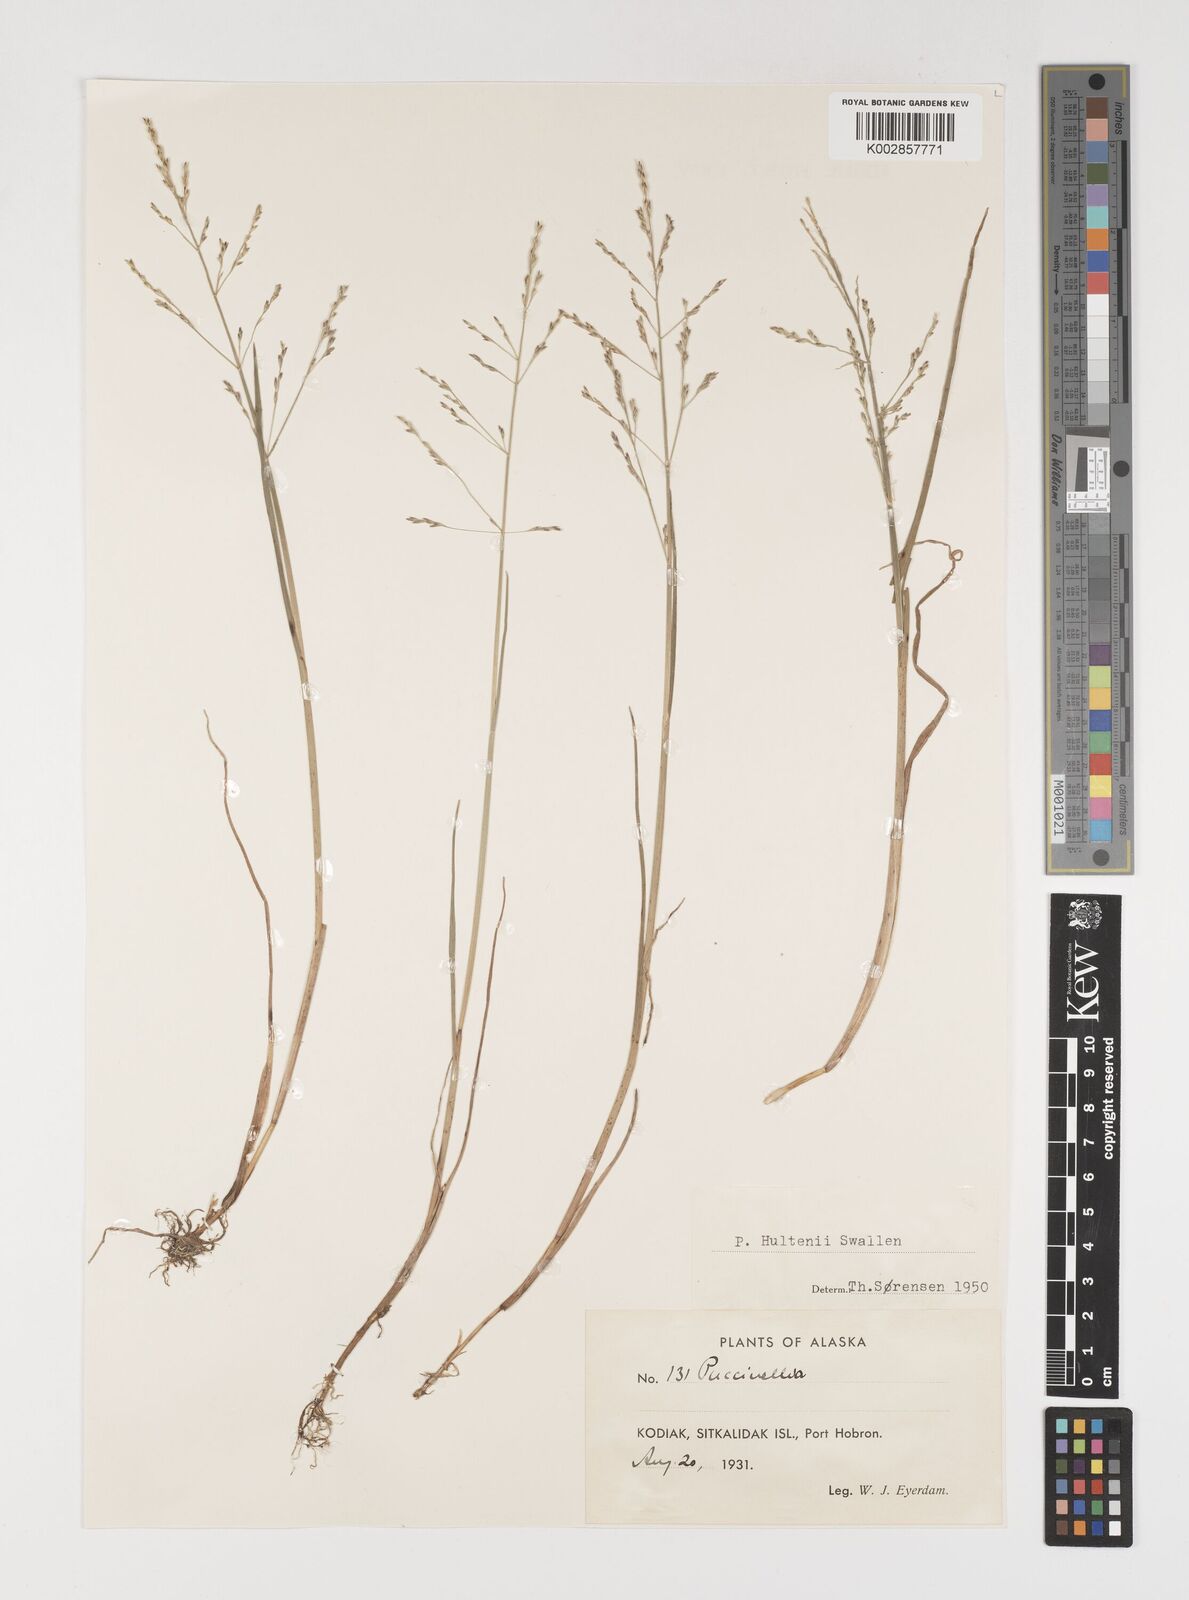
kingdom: Plantae
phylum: Tracheophyta
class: Liliopsida
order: Poales
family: Poaceae
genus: Puccinellia
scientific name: Puccinellia pumila
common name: Dwarf alkaligrass
